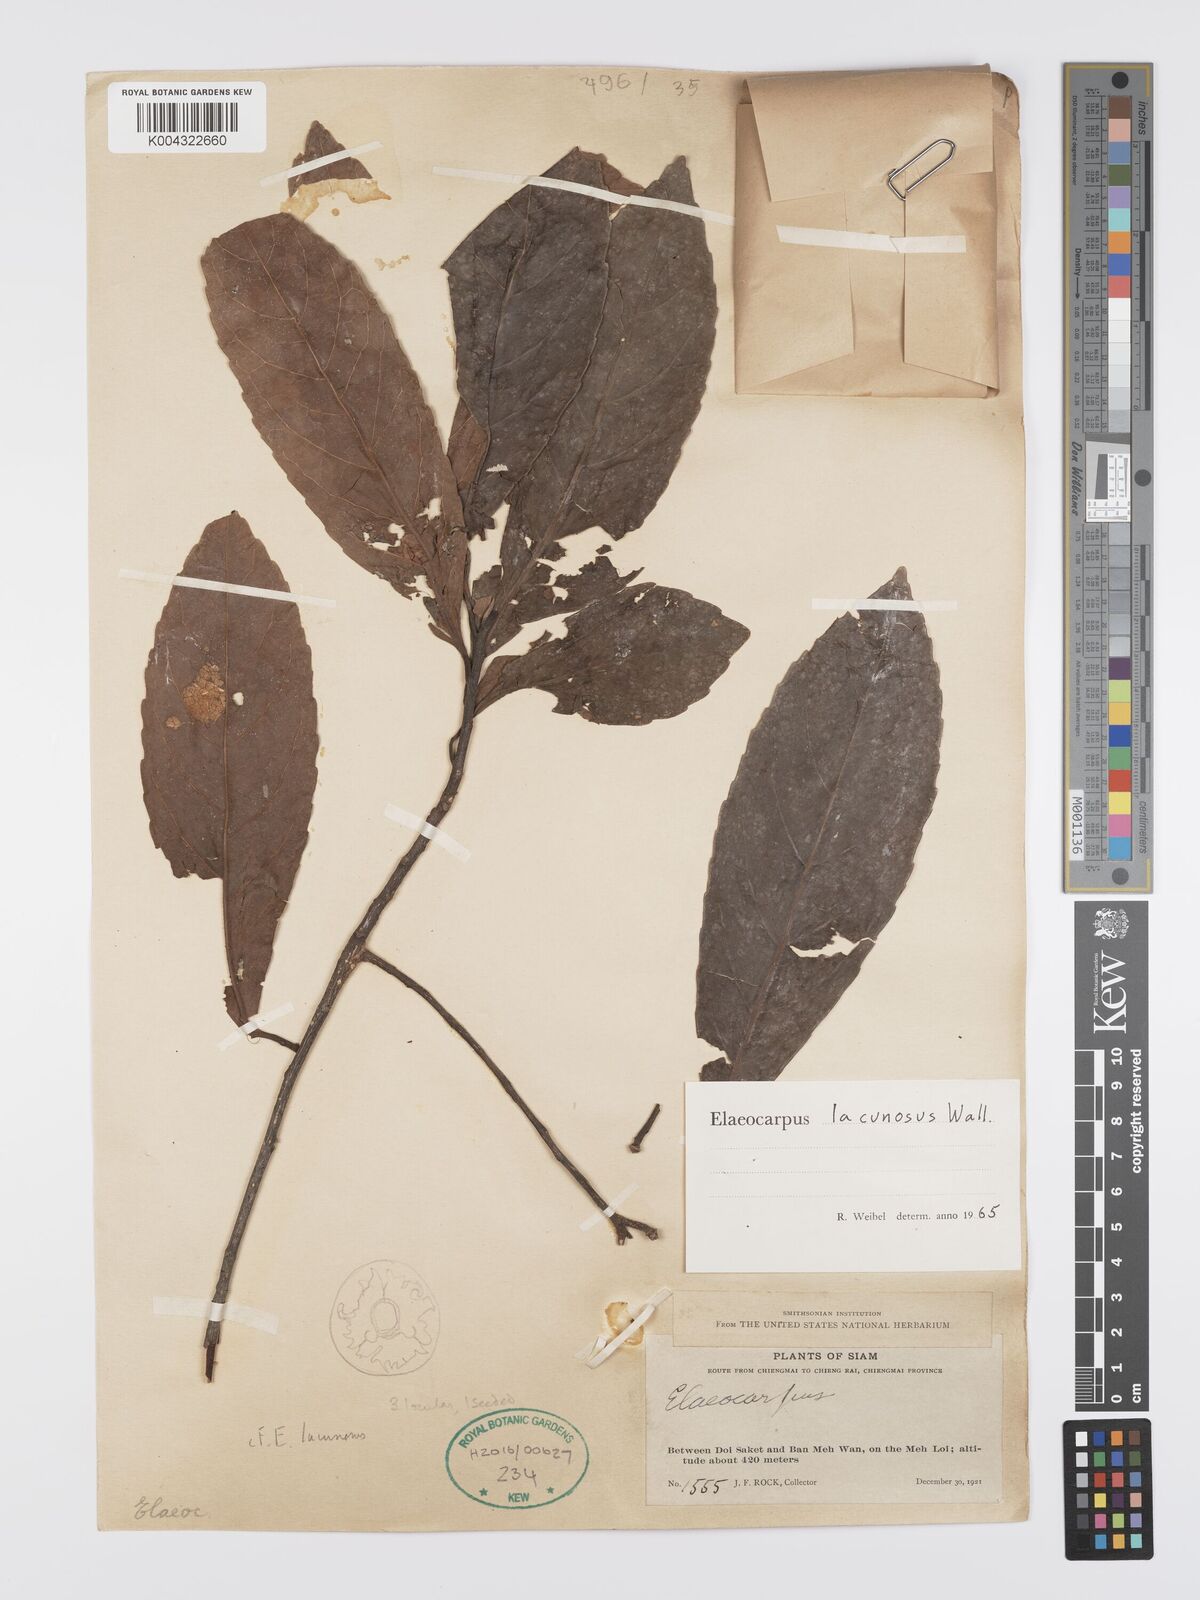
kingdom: Plantae
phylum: Tracheophyta
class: Magnoliopsida
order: Oxalidales
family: Elaeocarpaceae
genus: Elaeocarpus
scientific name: Elaeocarpus lanceifolius
